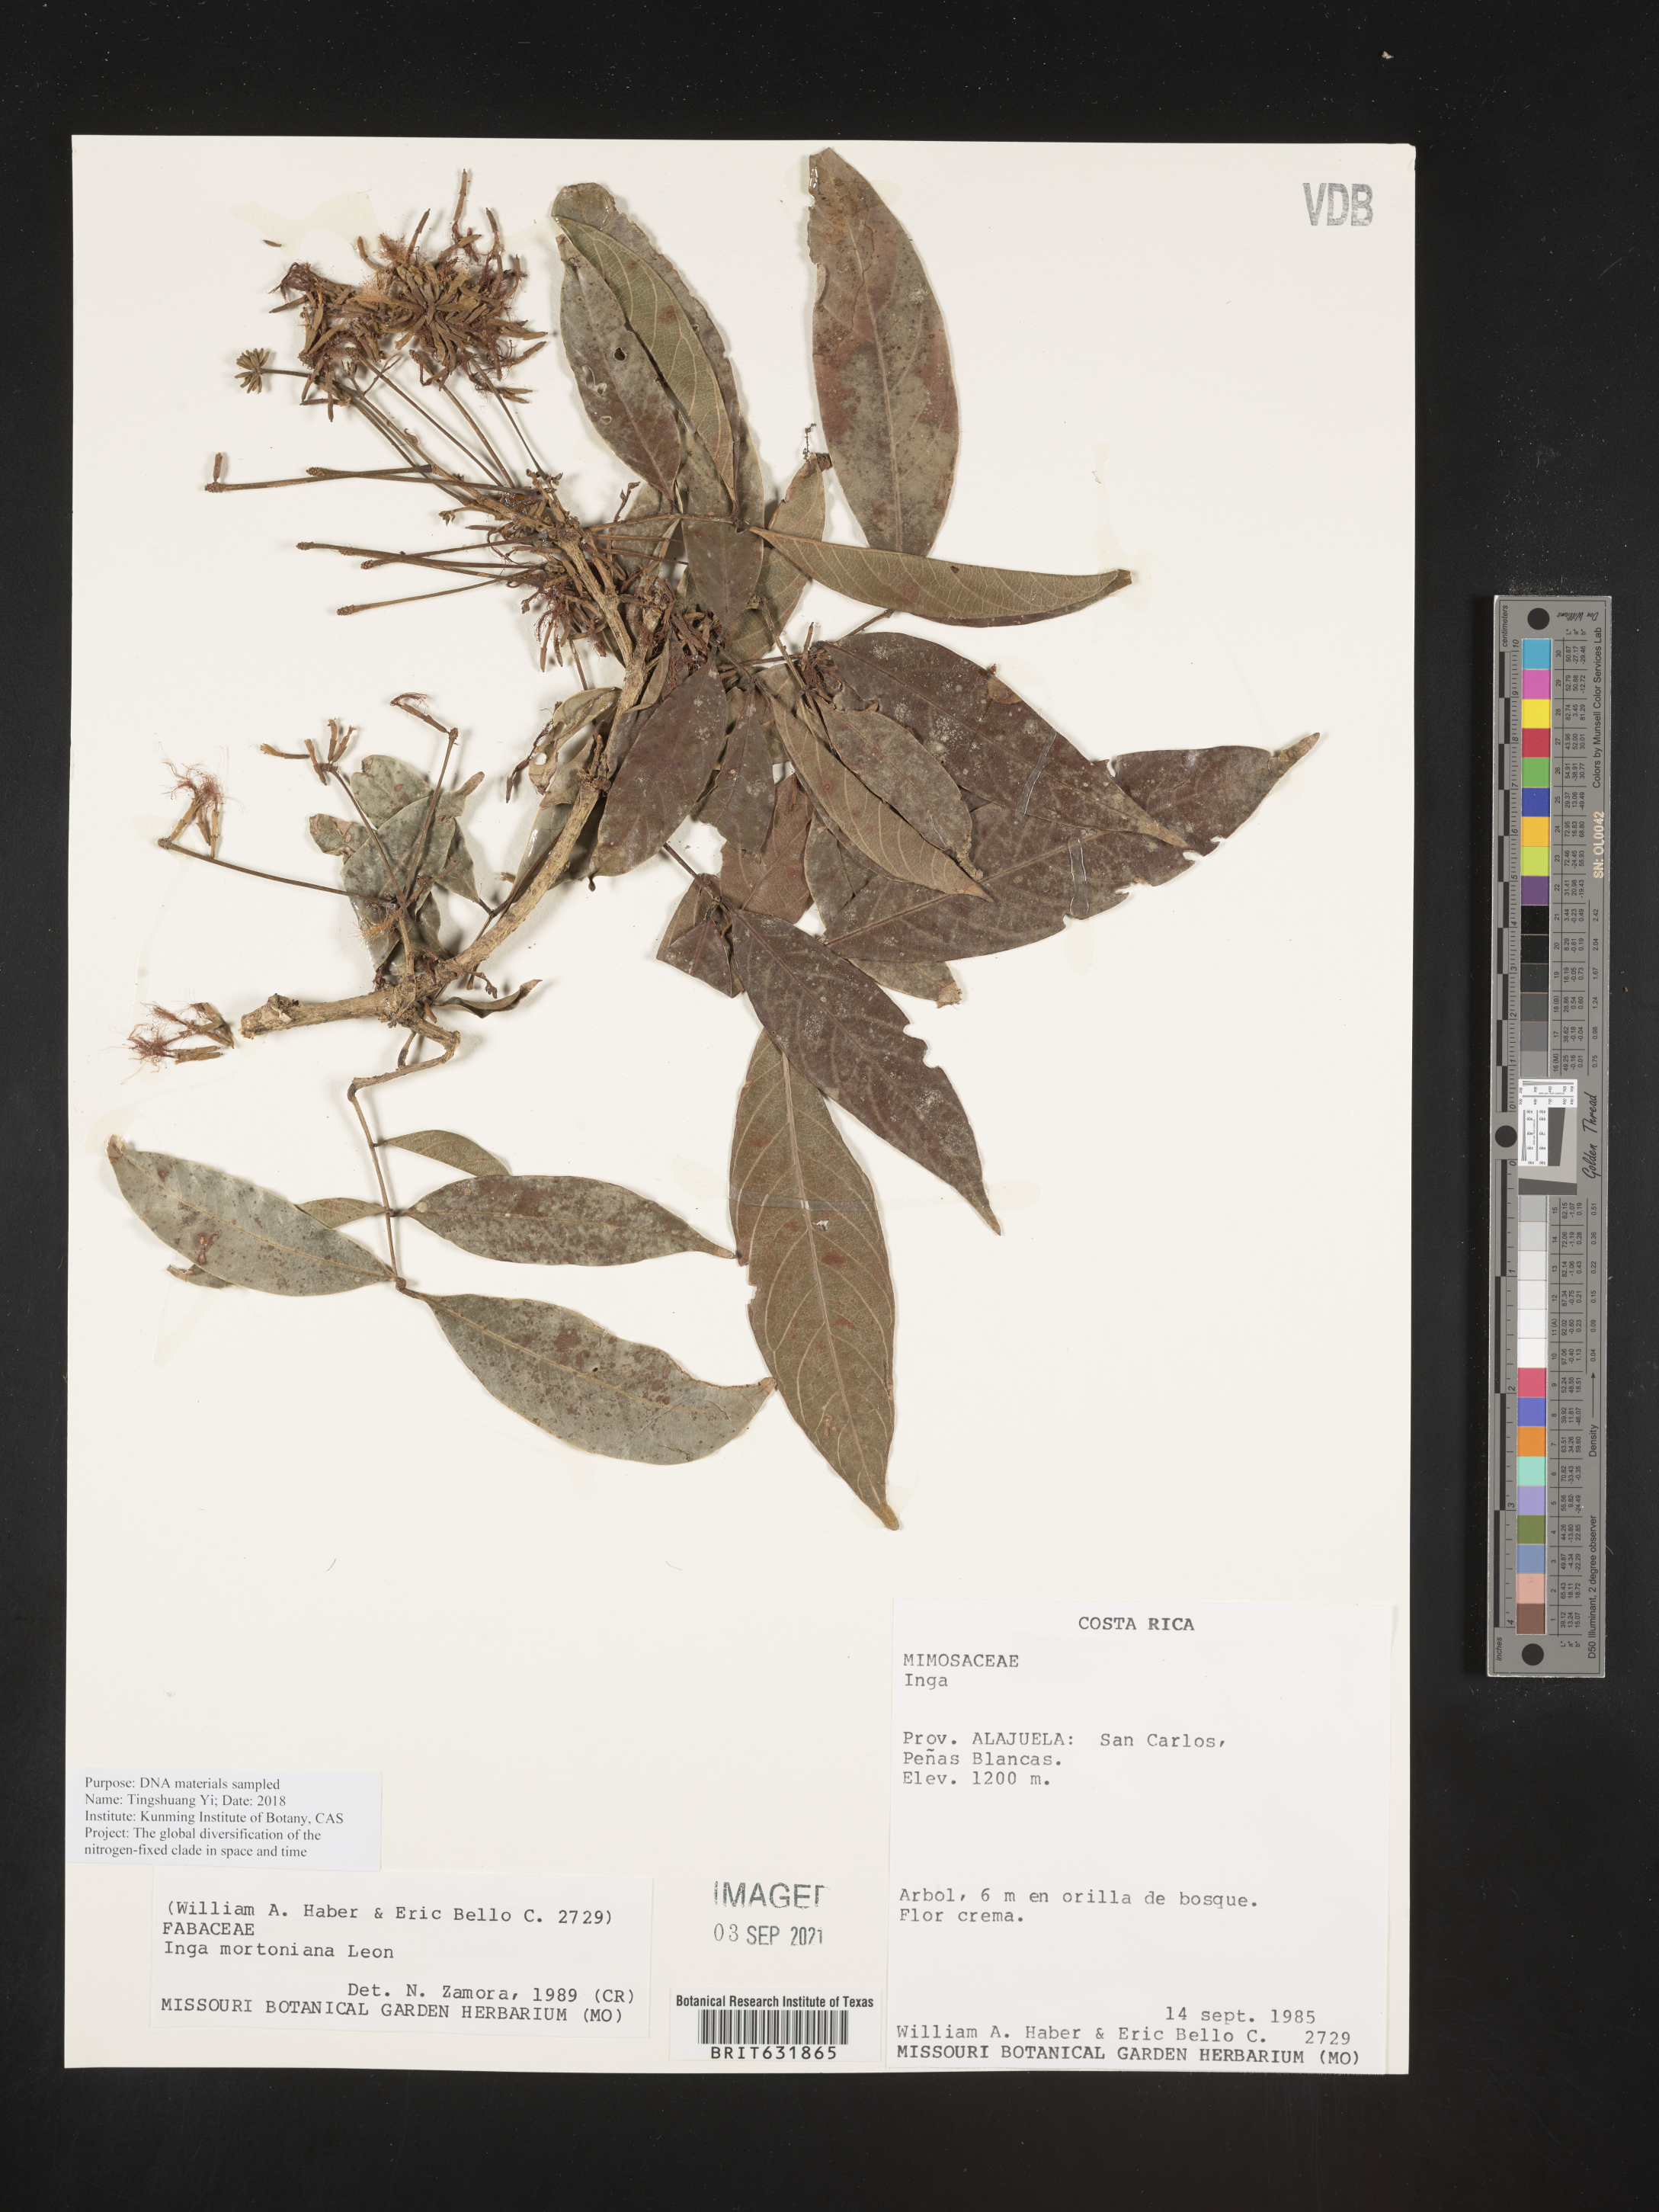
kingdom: Plantae
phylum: Tracheophyta
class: Magnoliopsida
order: Fabales
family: Fabaceae
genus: Inga
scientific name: Inga
